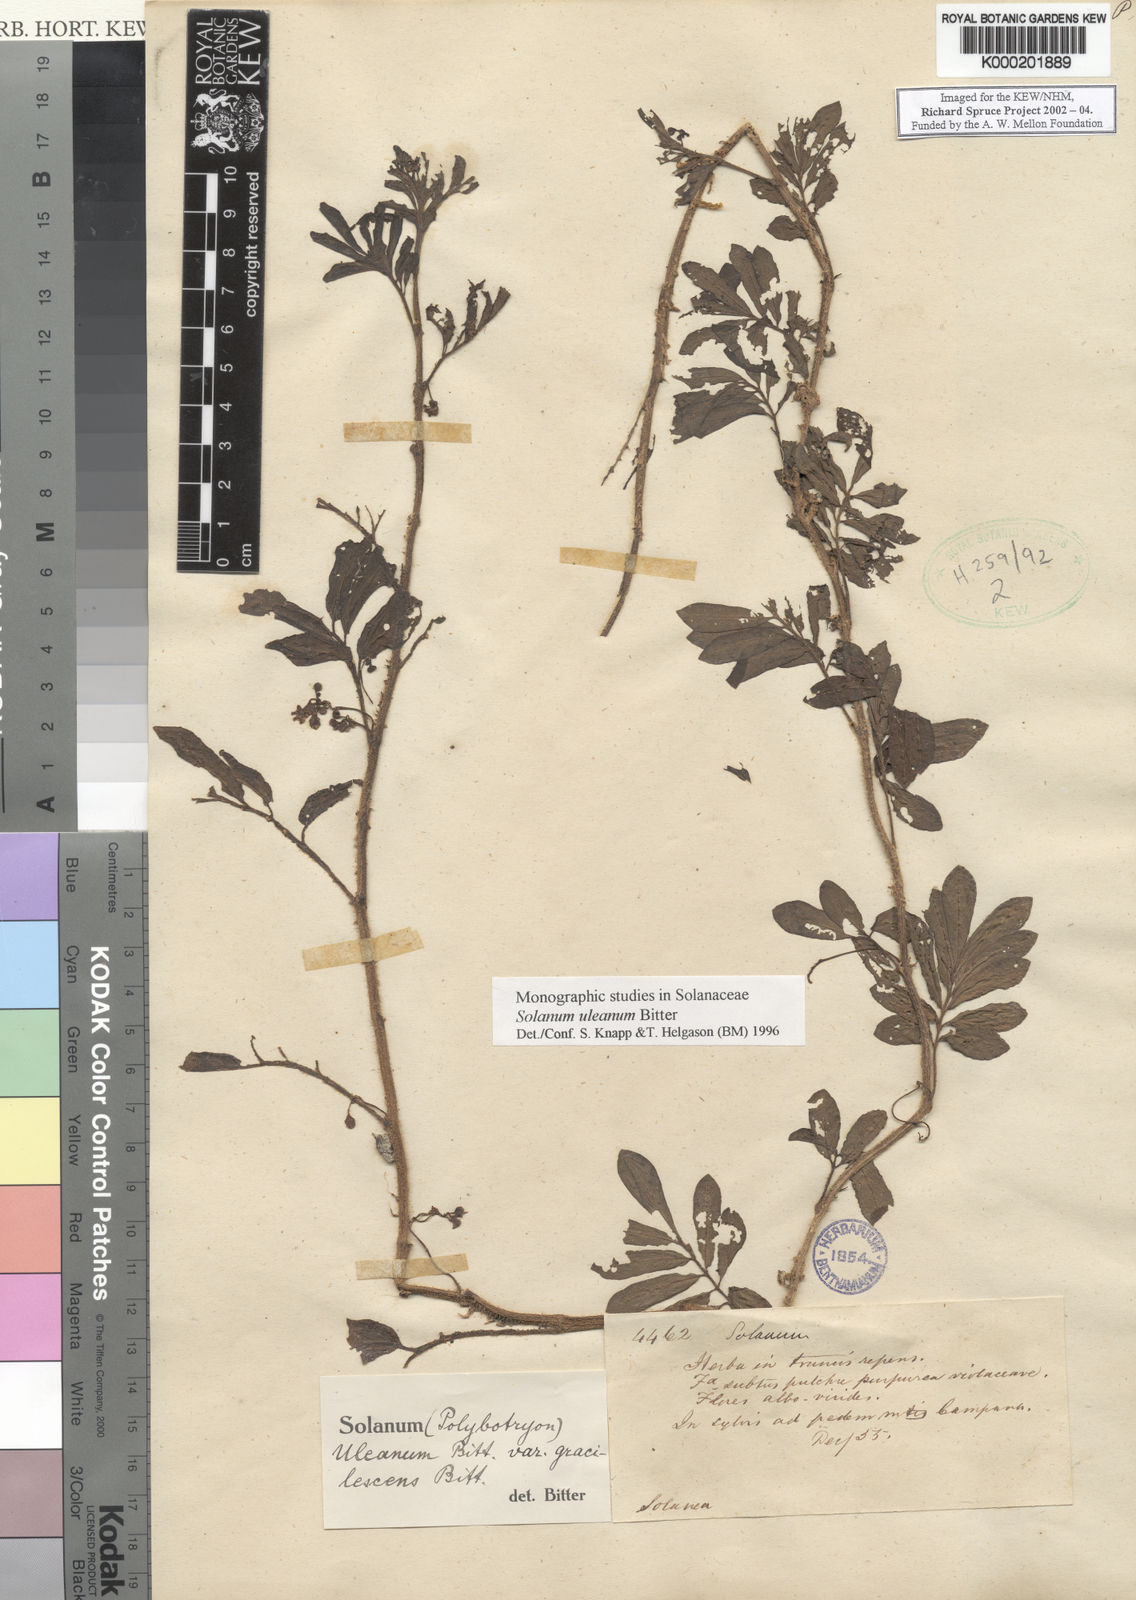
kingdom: Plantae
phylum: Tracheophyta
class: Magnoliopsida
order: Solanales
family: Solanaceae
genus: Solanum
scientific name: Solanum uleanum
